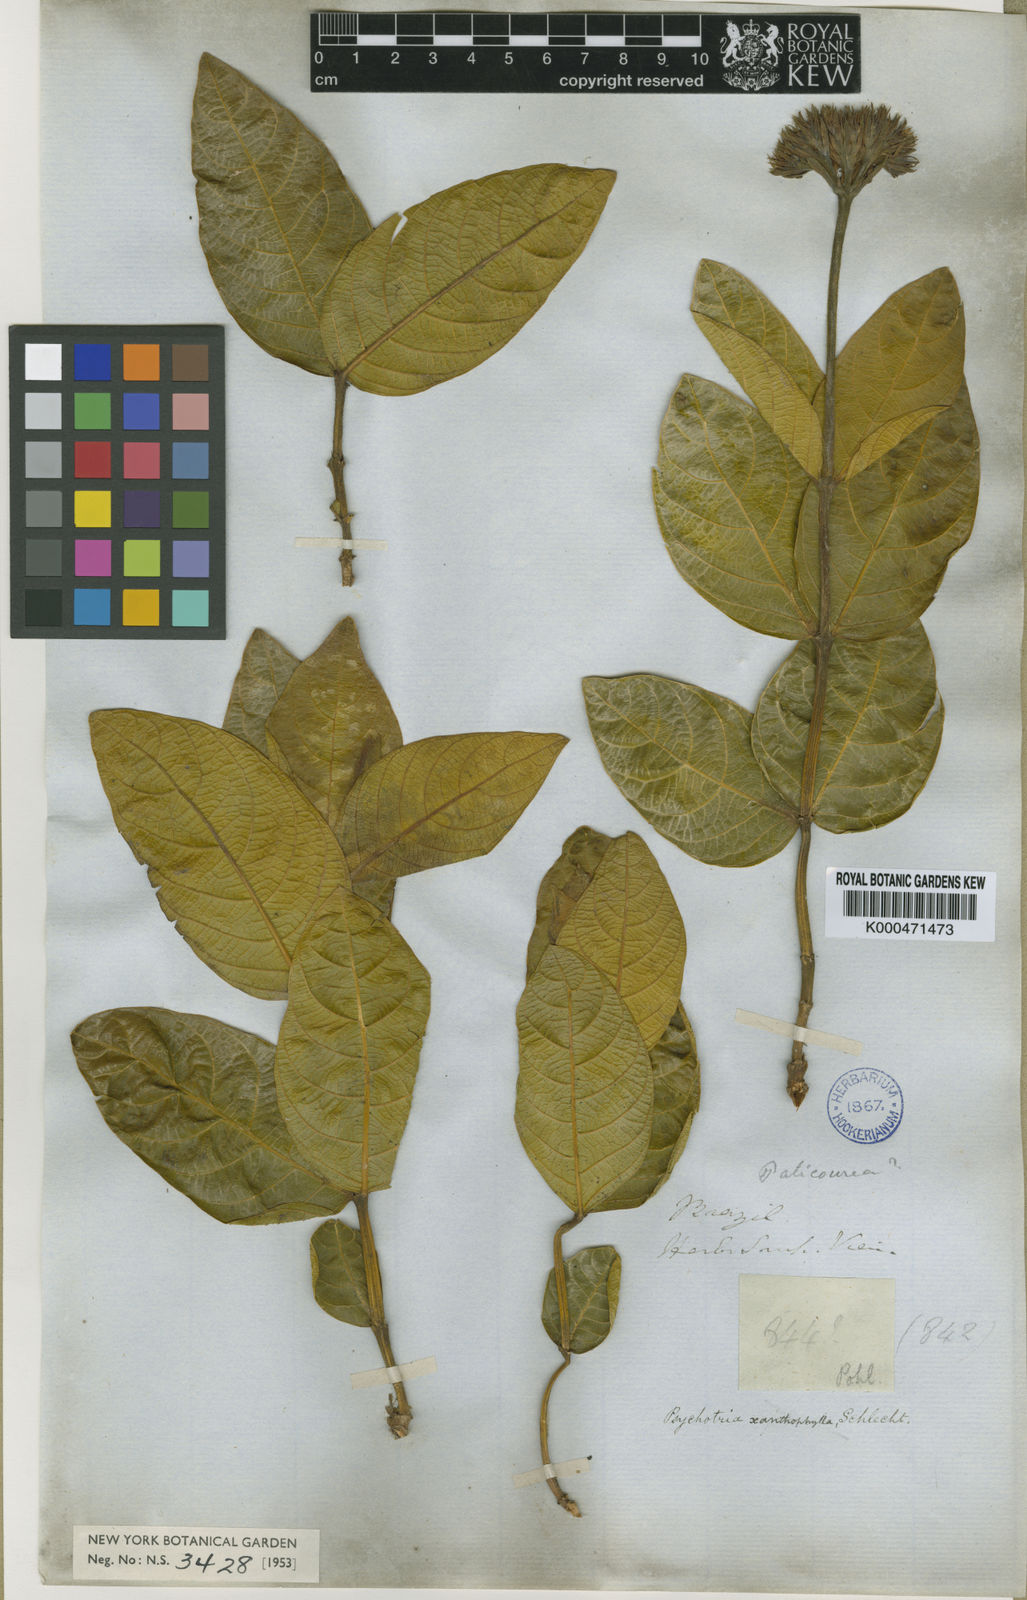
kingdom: Plantae
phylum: Tracheophyta
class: Magnoliopsida
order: Gentianales
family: Rubiaceae
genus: Palicourea
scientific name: Palicourea coriacea
